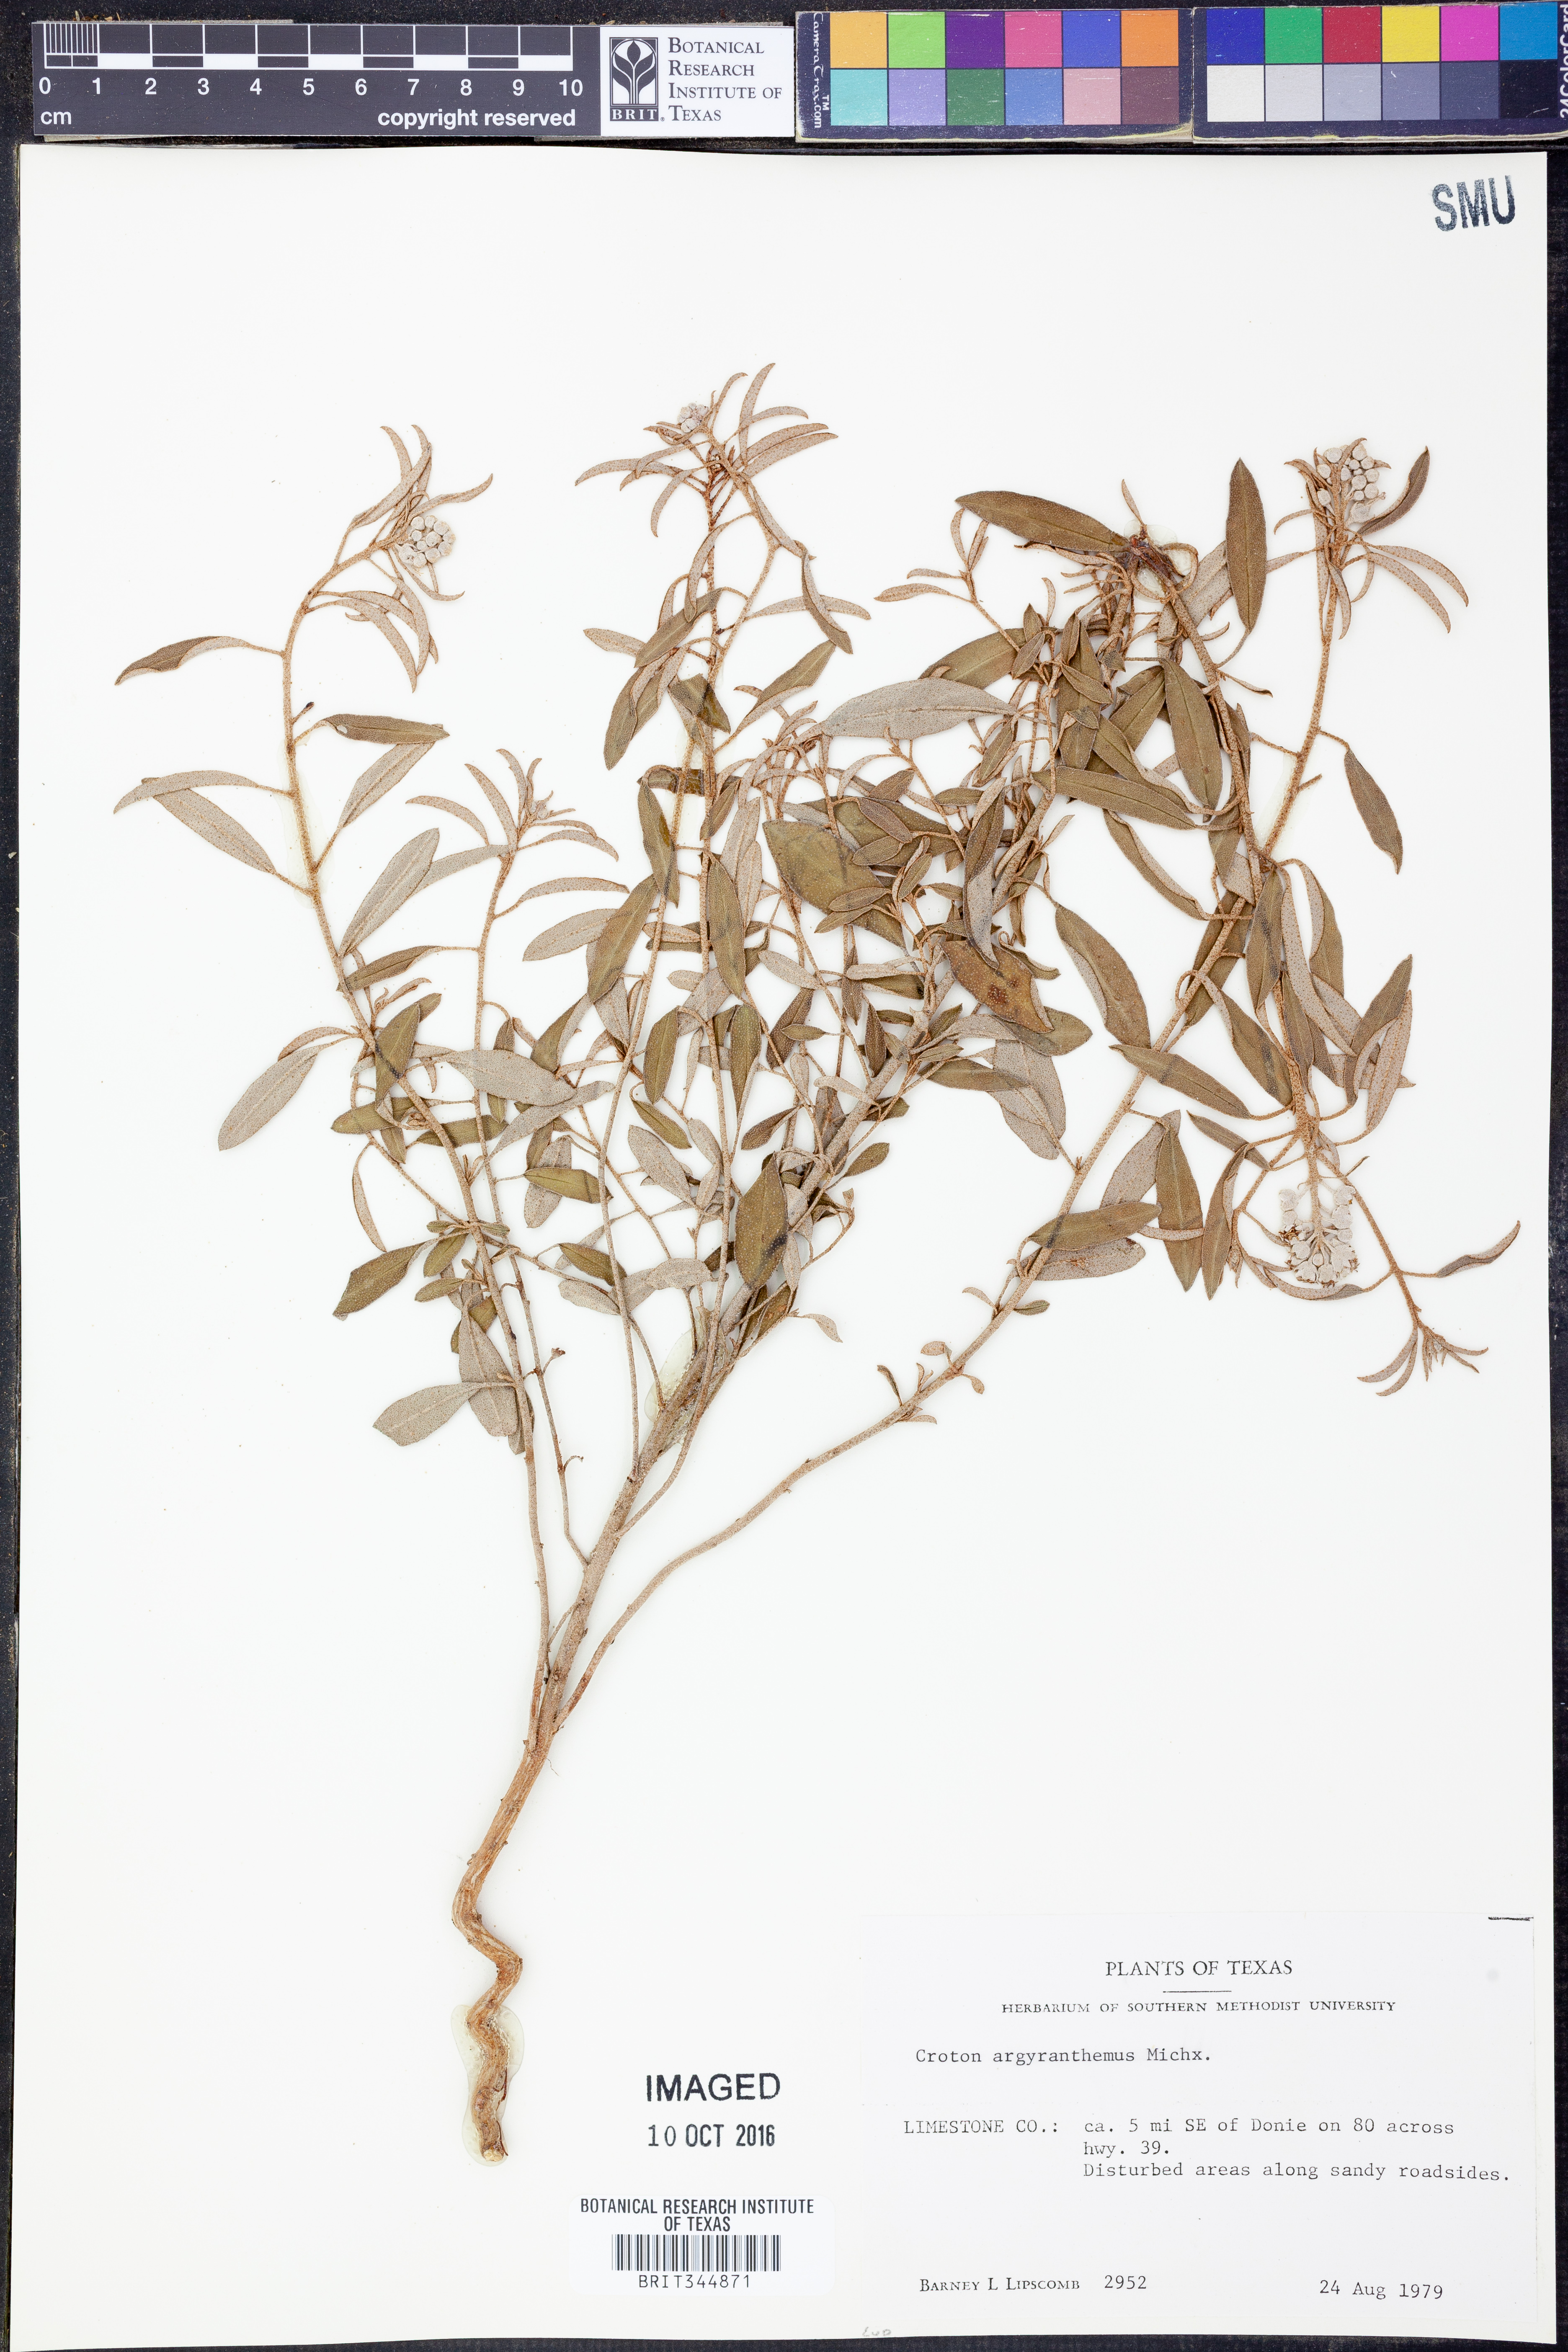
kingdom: Plantae
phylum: Tracheophyta
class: Magnoliopsida
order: Malpighiales
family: Euphorbiaceae
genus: Croton
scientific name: Croton argyranthemus
